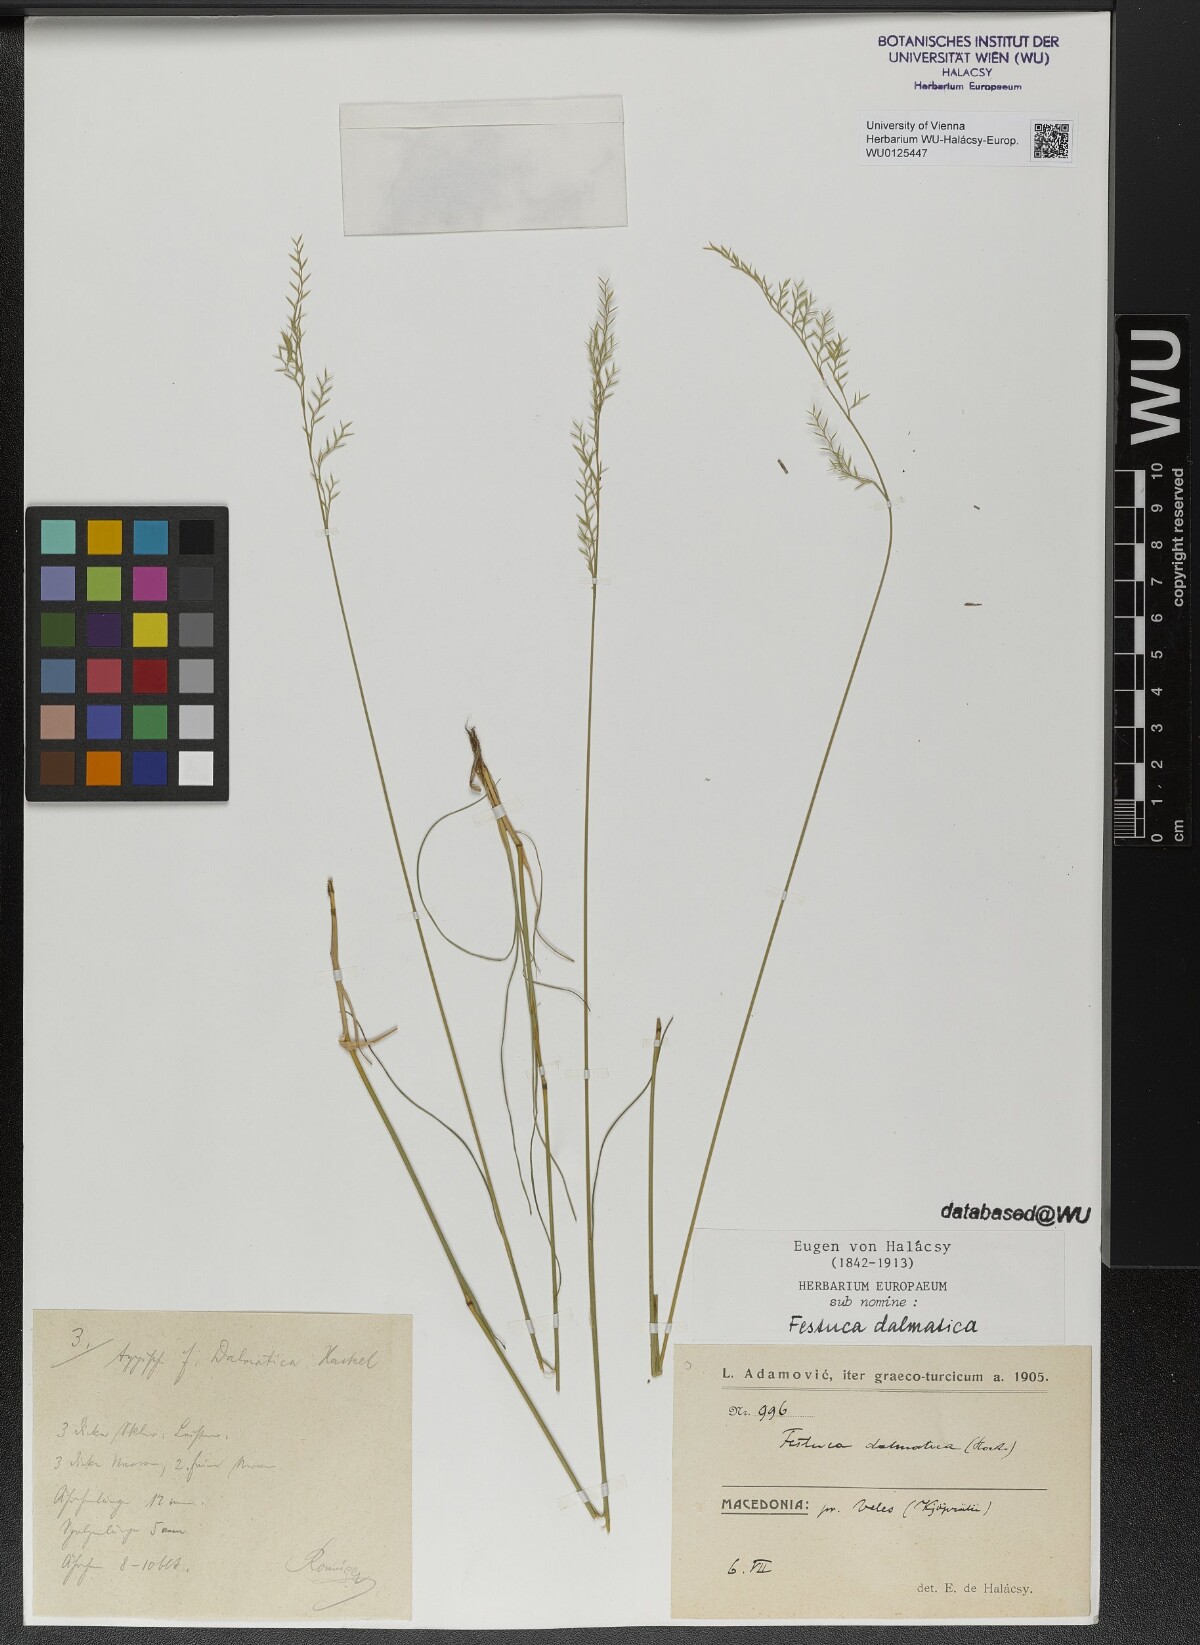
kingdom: Plantae
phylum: Tracheophyta
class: Liliopsida
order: Poales
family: Poaceae
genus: Festuca
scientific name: Festuca dalmatica
